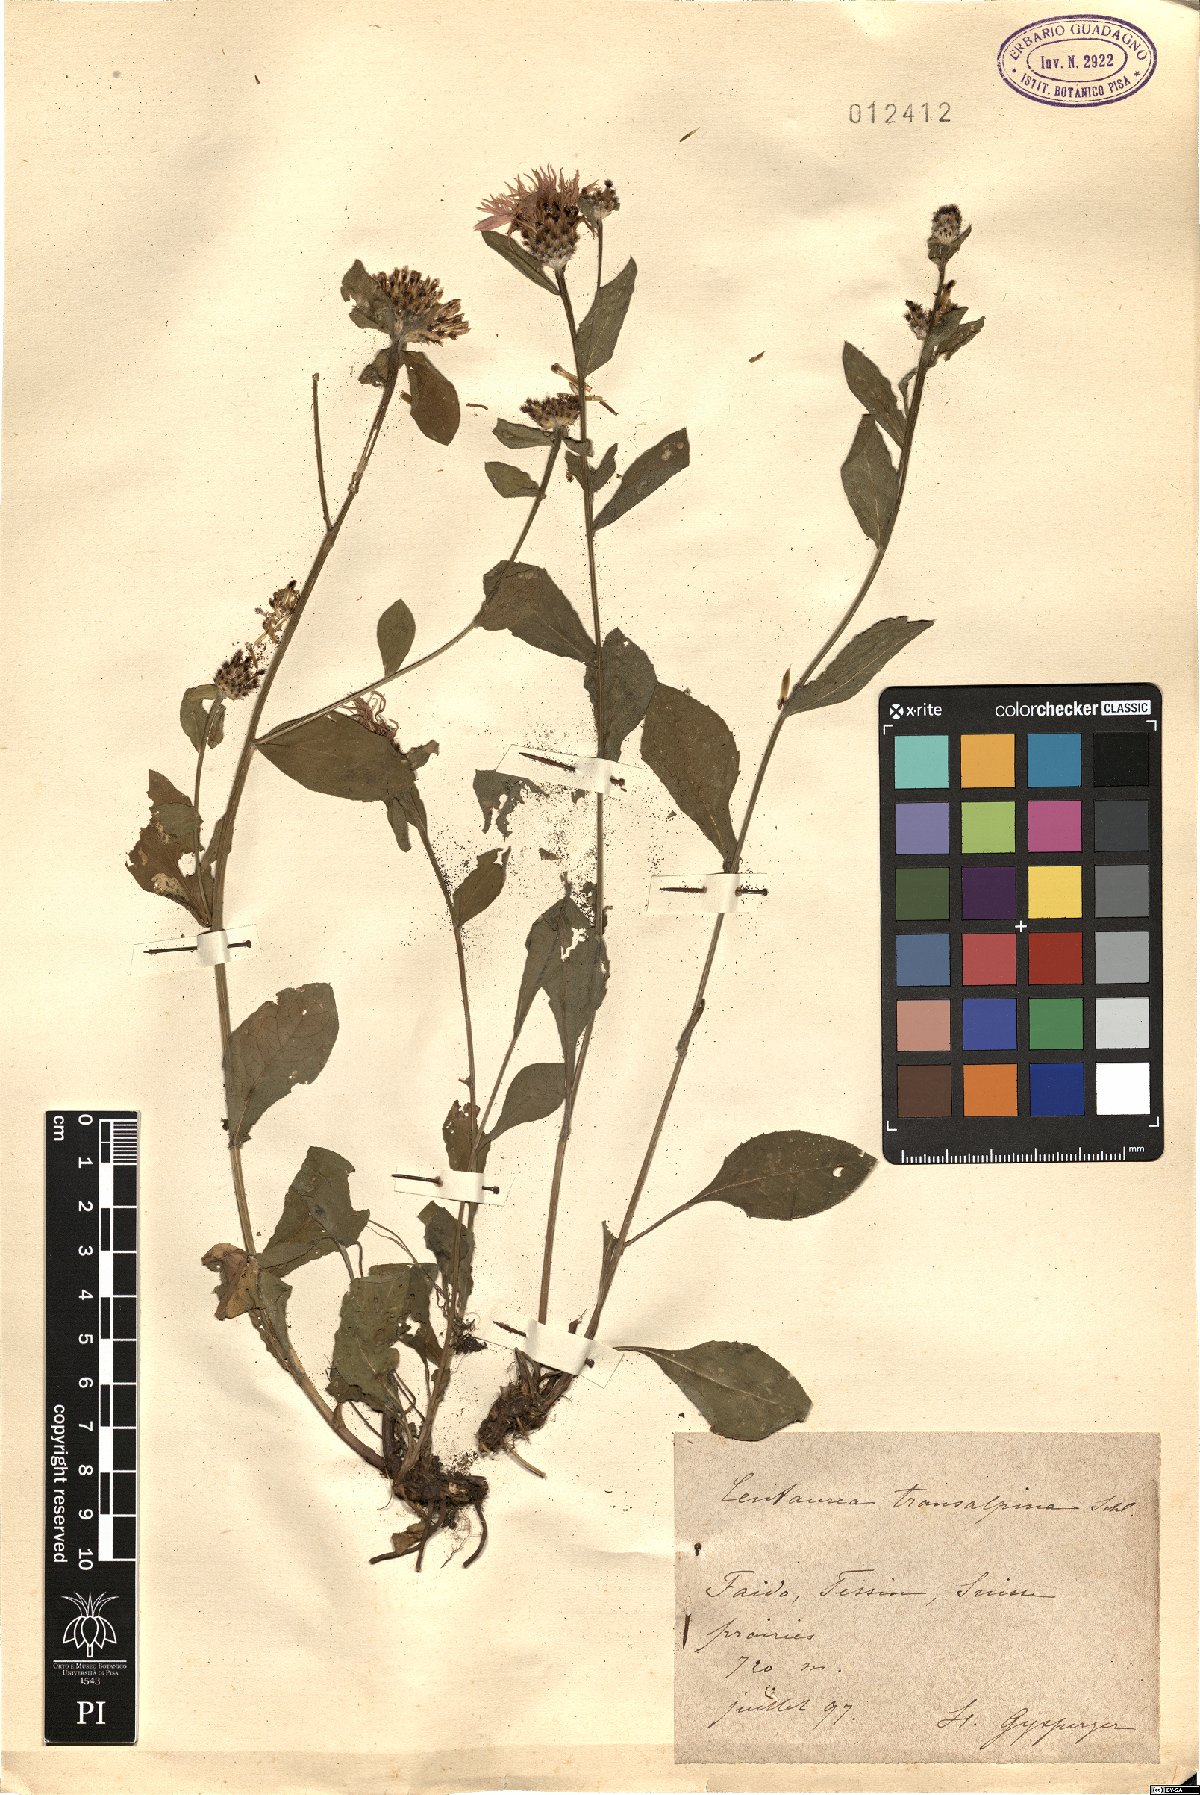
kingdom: Plantae
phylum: Tracheophyta
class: Magnoliopsida
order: Asterales
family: Asteraceae
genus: Centaurea
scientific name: Centaurea nigrescens
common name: Tyrol knapweed
